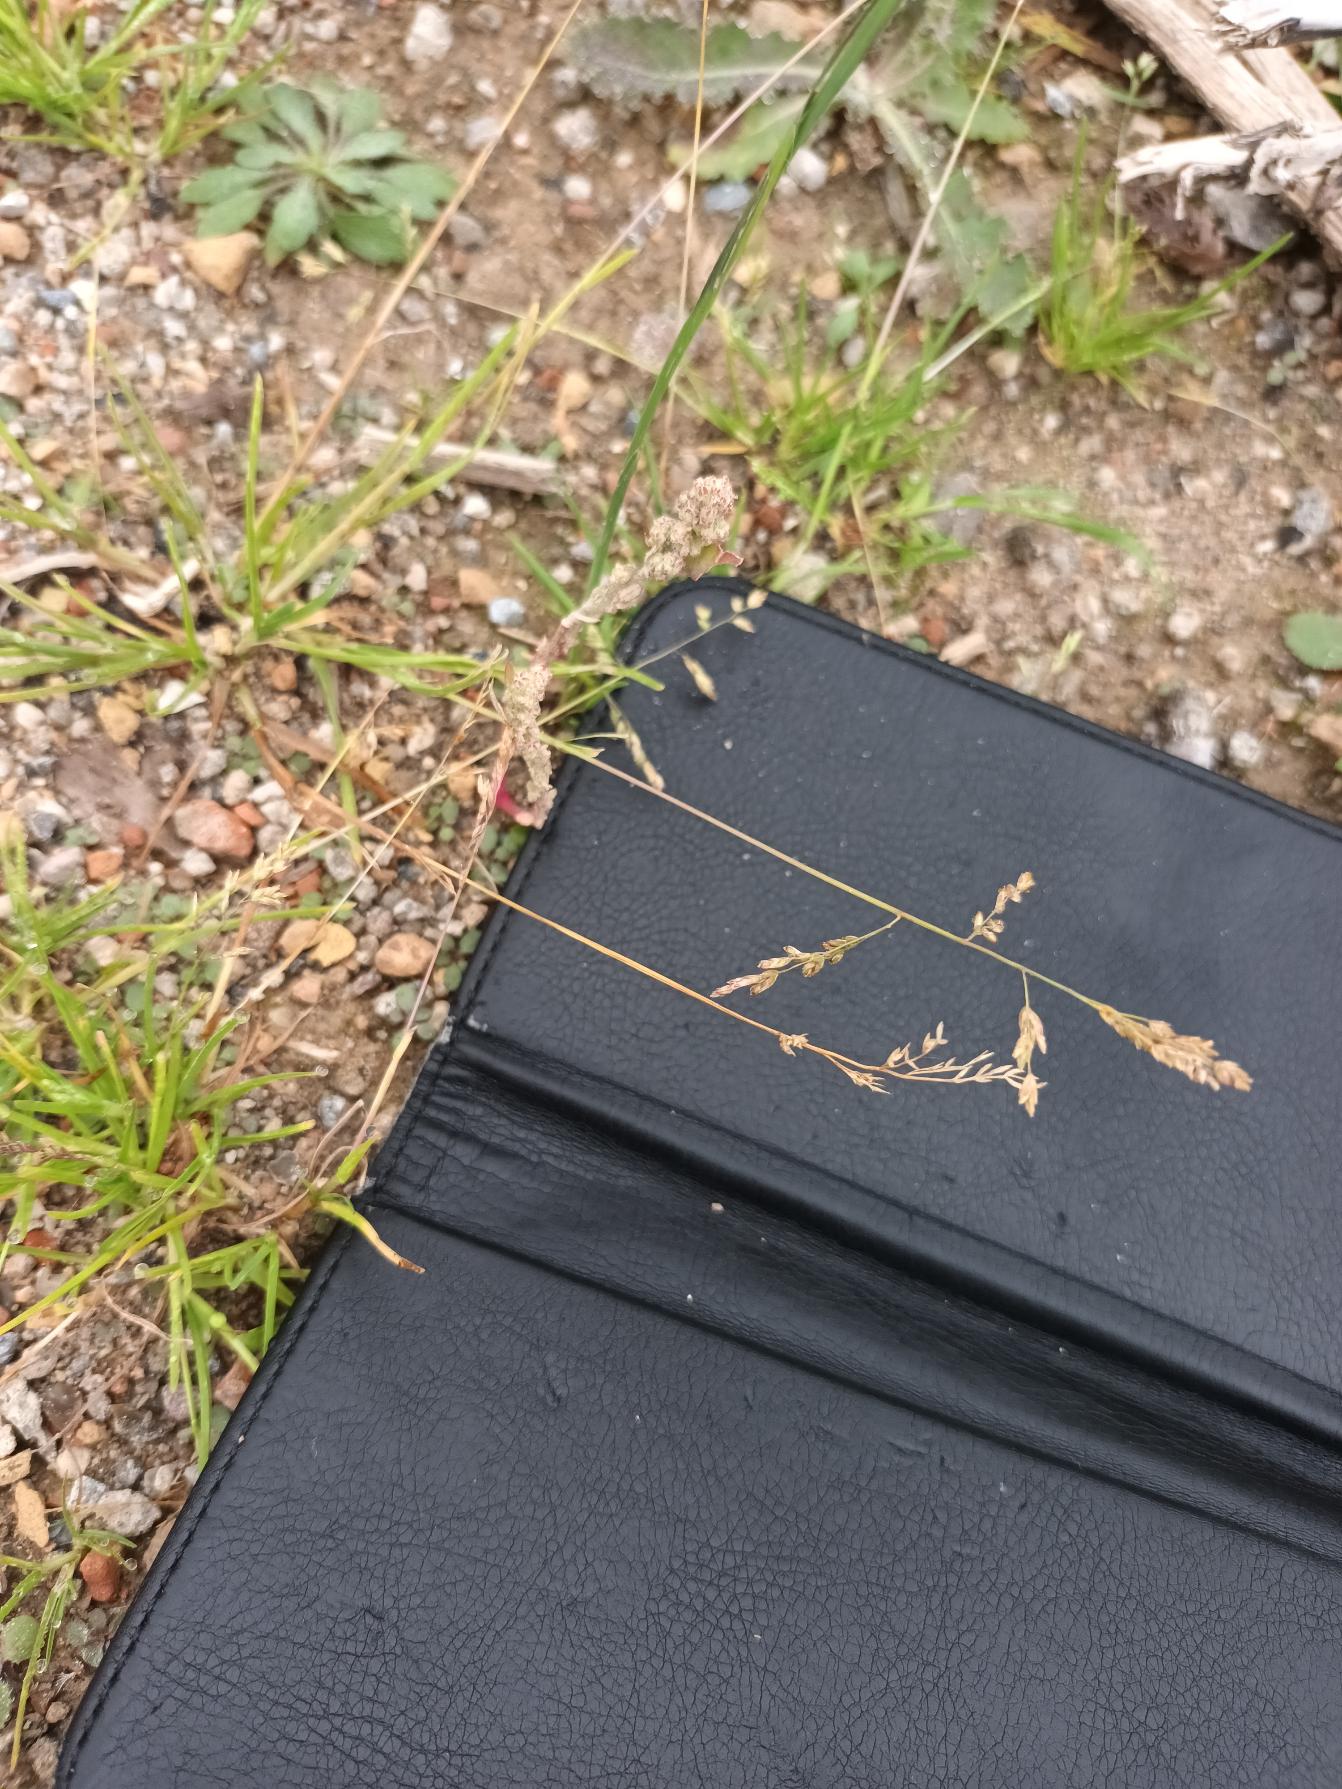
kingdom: Plantae
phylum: Tracheophyta
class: Liliopsida
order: Poales
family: Poaceae
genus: Poa
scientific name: Poa annua
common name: Enårig rapgræs
